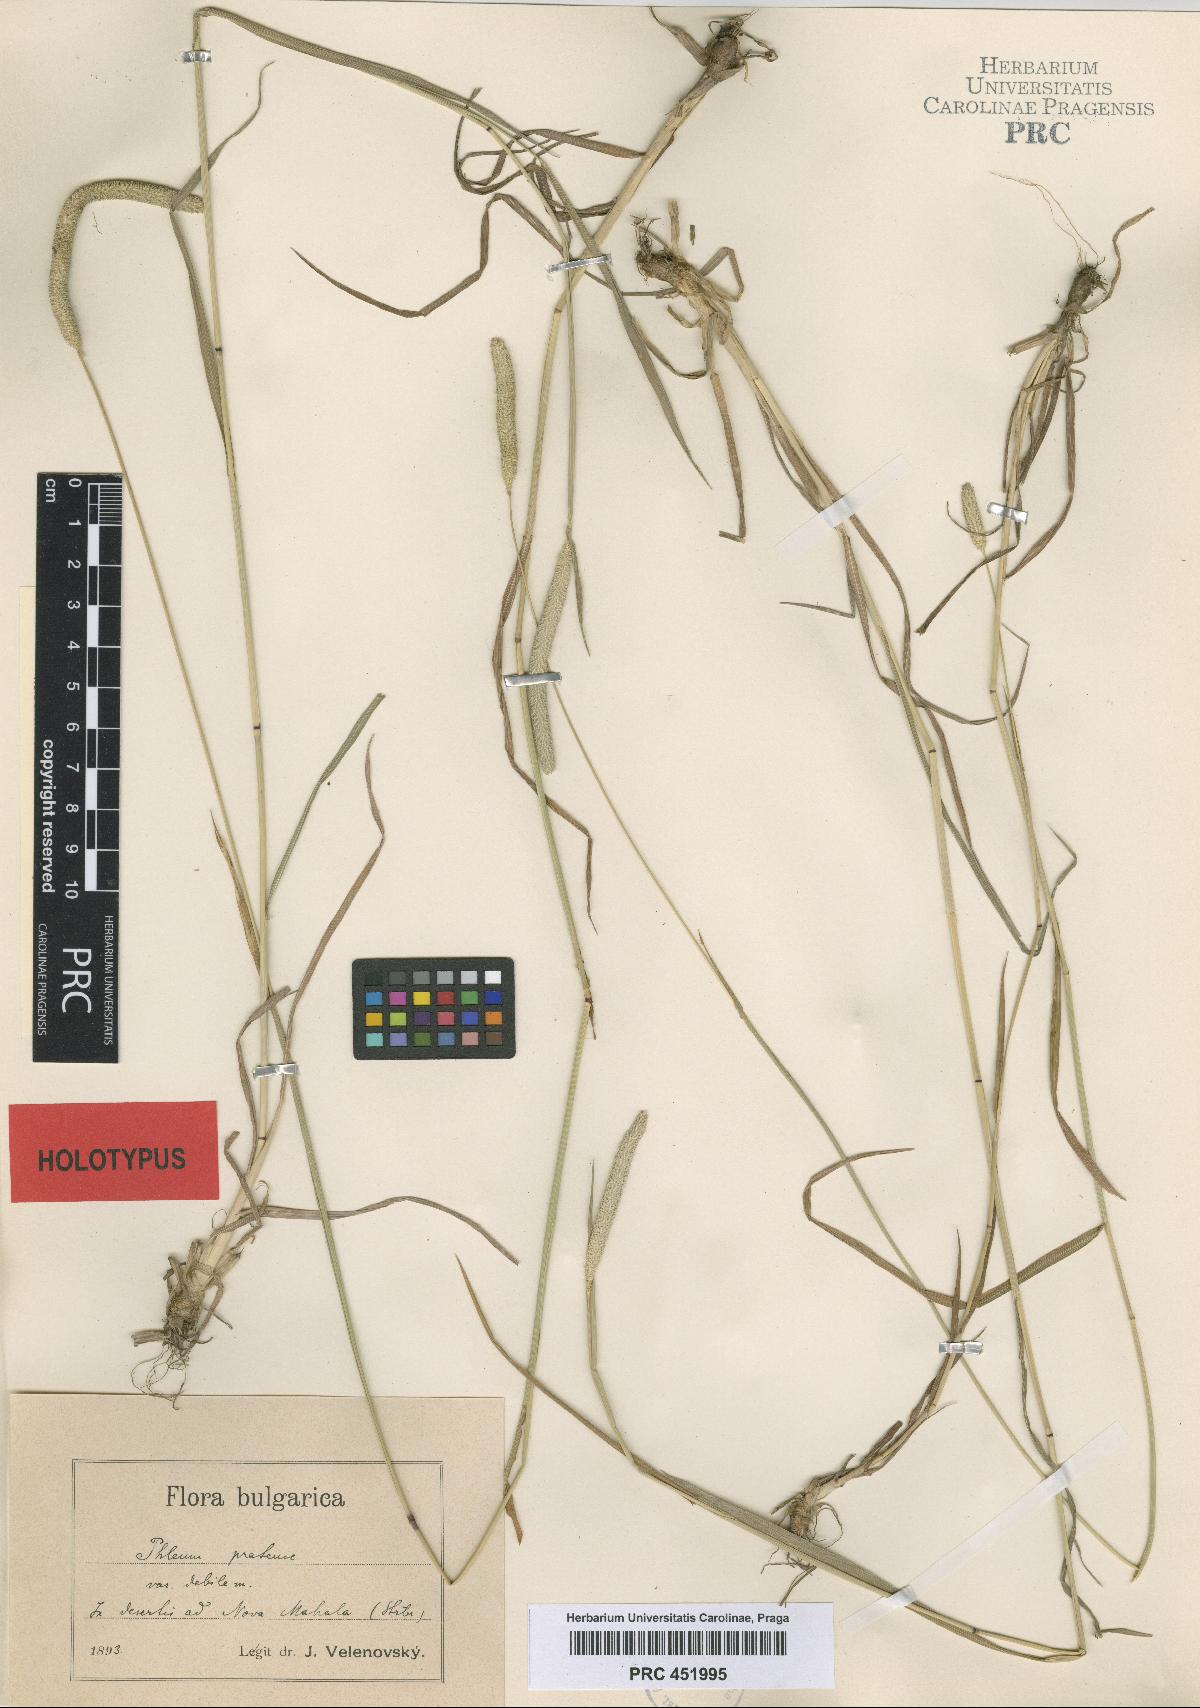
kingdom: Plantae
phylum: Tracheophyta
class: Liliopsida
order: Poales
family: Poaceae
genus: Phleum
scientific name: Phleum bertolonii
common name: Smaller cat's-tail
